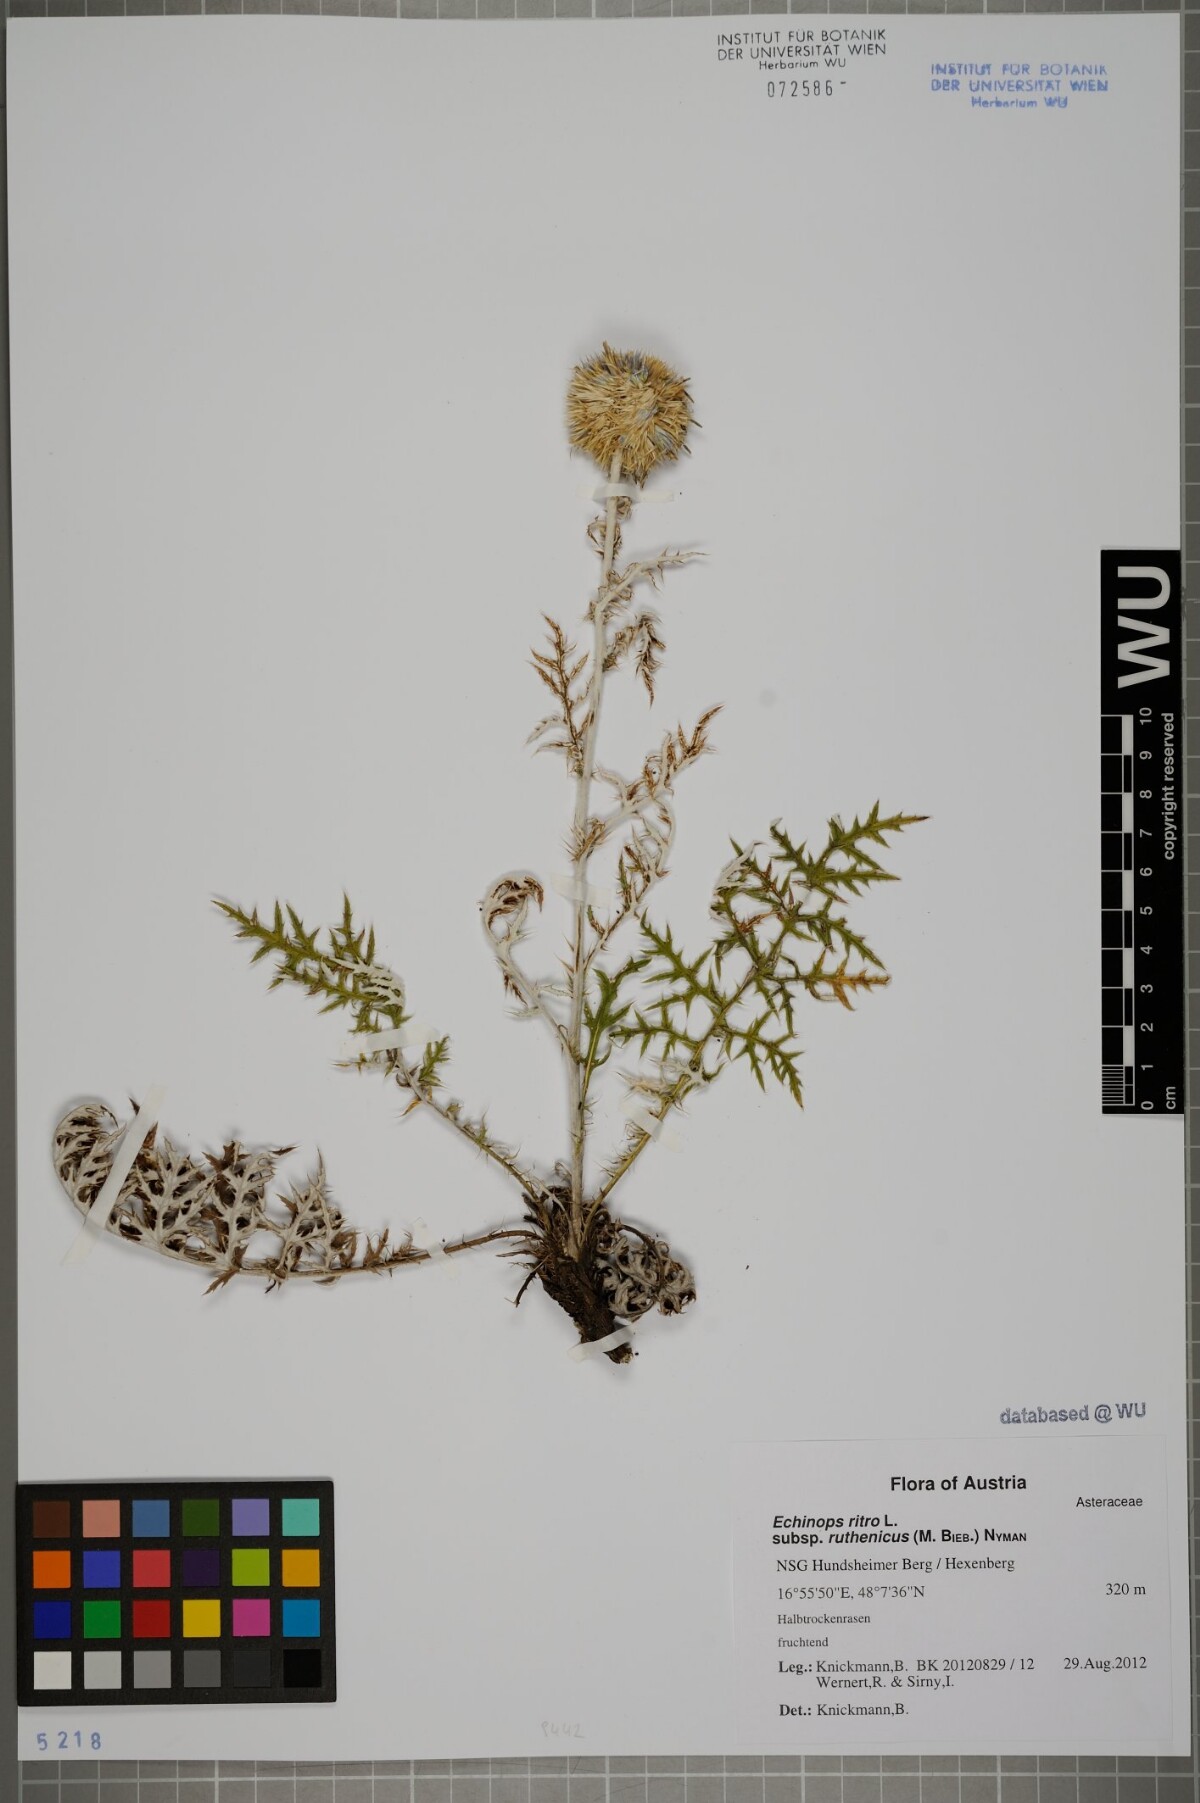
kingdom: Plantae
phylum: Tracheophyta
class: Magnoliopsida
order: Asterales
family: Asteraceae
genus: Echinops
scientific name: Echinops ritro
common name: Globe thistle
